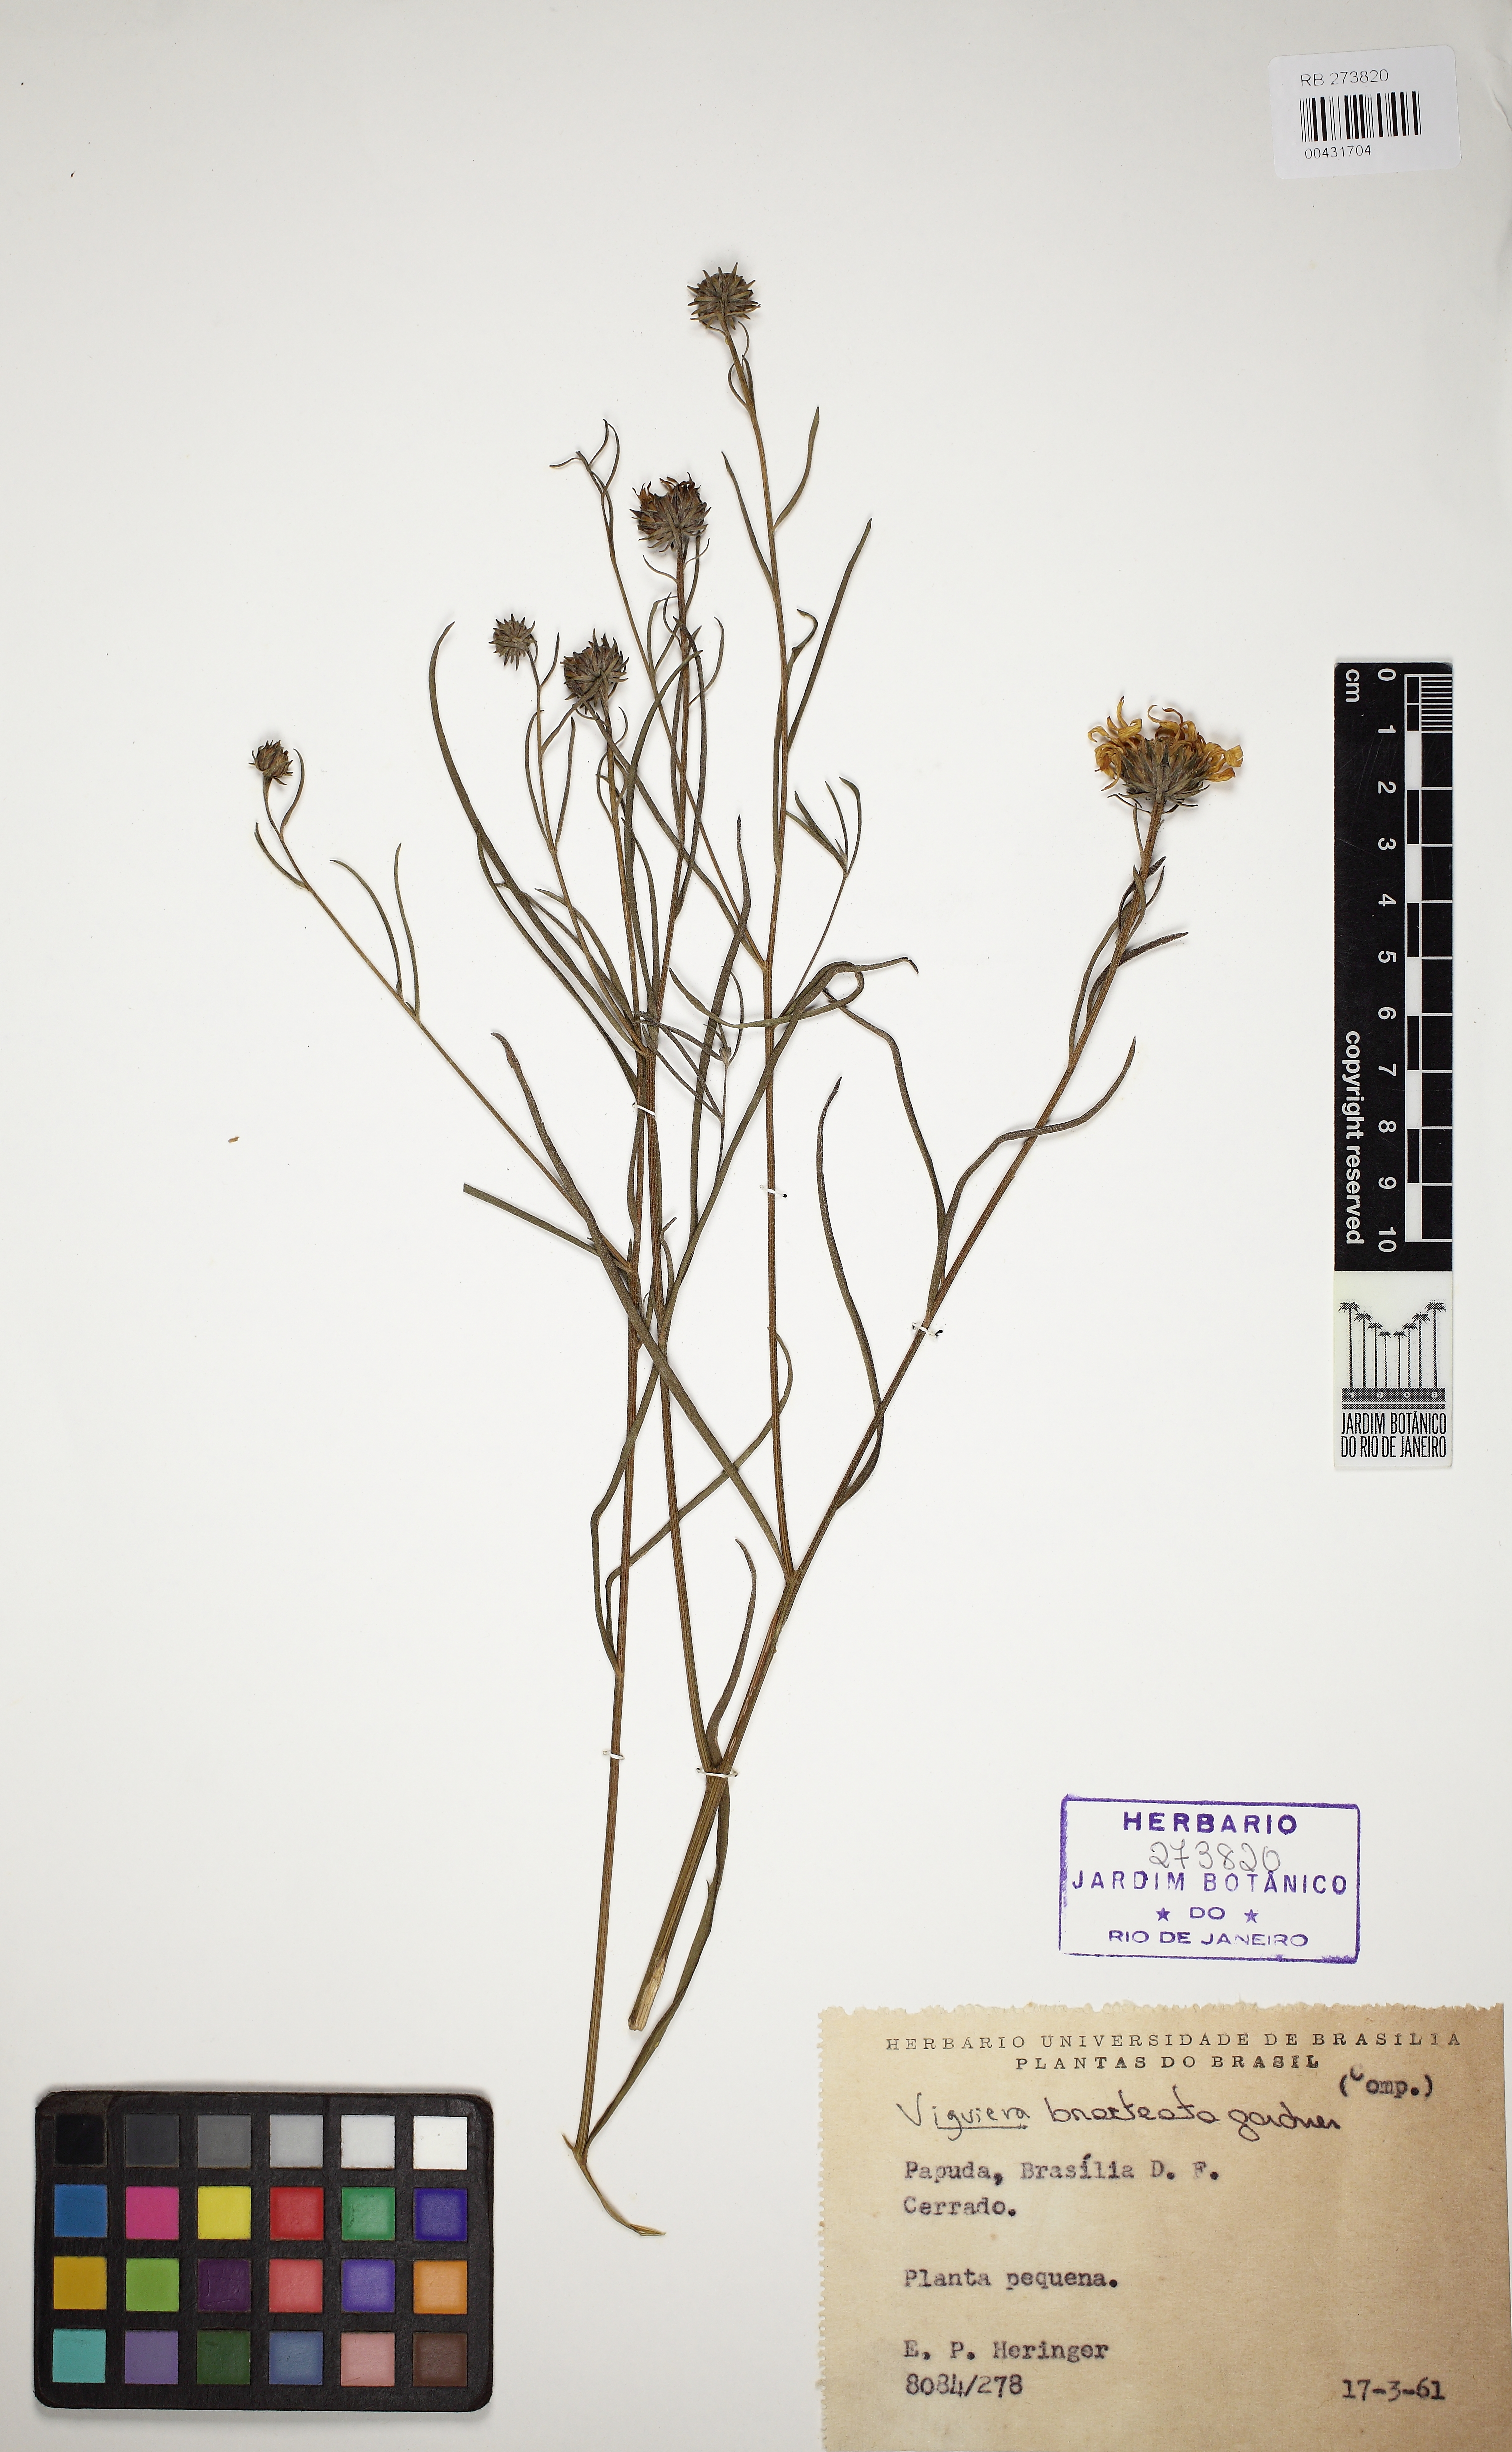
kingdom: Plantae
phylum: Tracheophyta
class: Magnoliopsida
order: Asterales
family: Asteraceae
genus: Aldama
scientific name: Aldama bracteata
